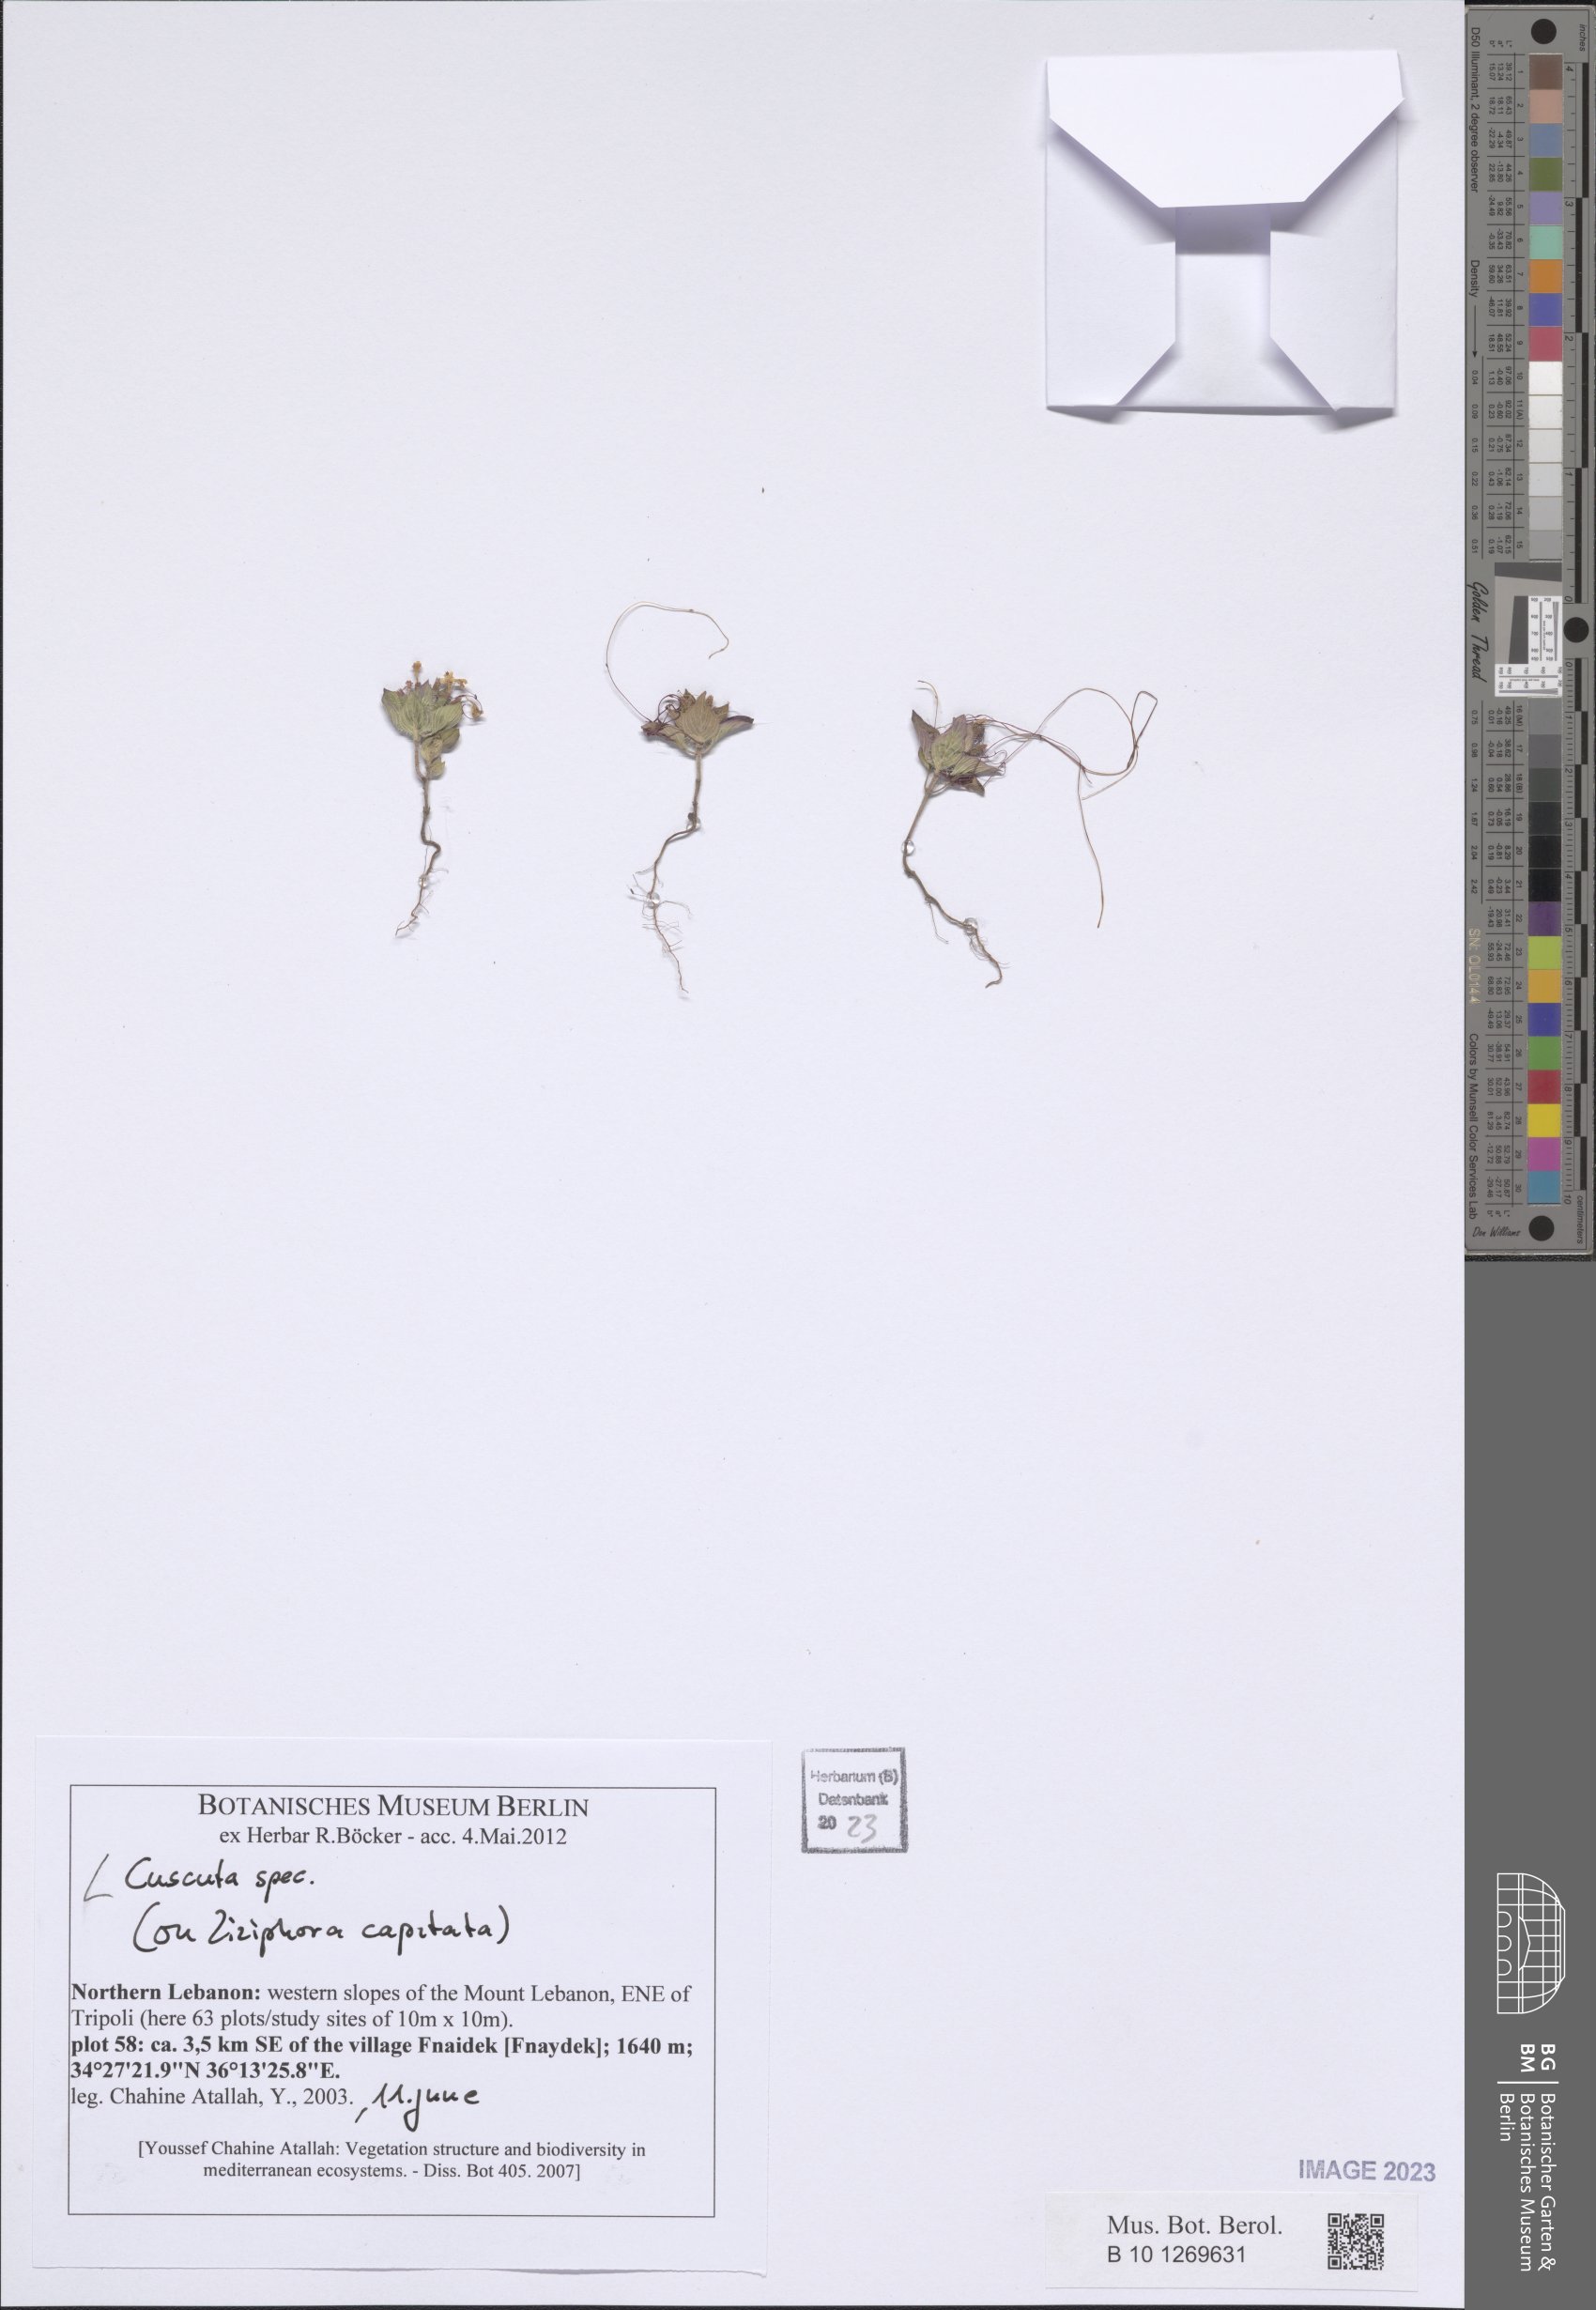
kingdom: Plantae
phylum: Tracheophyta
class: Magnoliopsida
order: Solanales
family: Convolvulaceae
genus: Cuscuta
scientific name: Cuscuta
